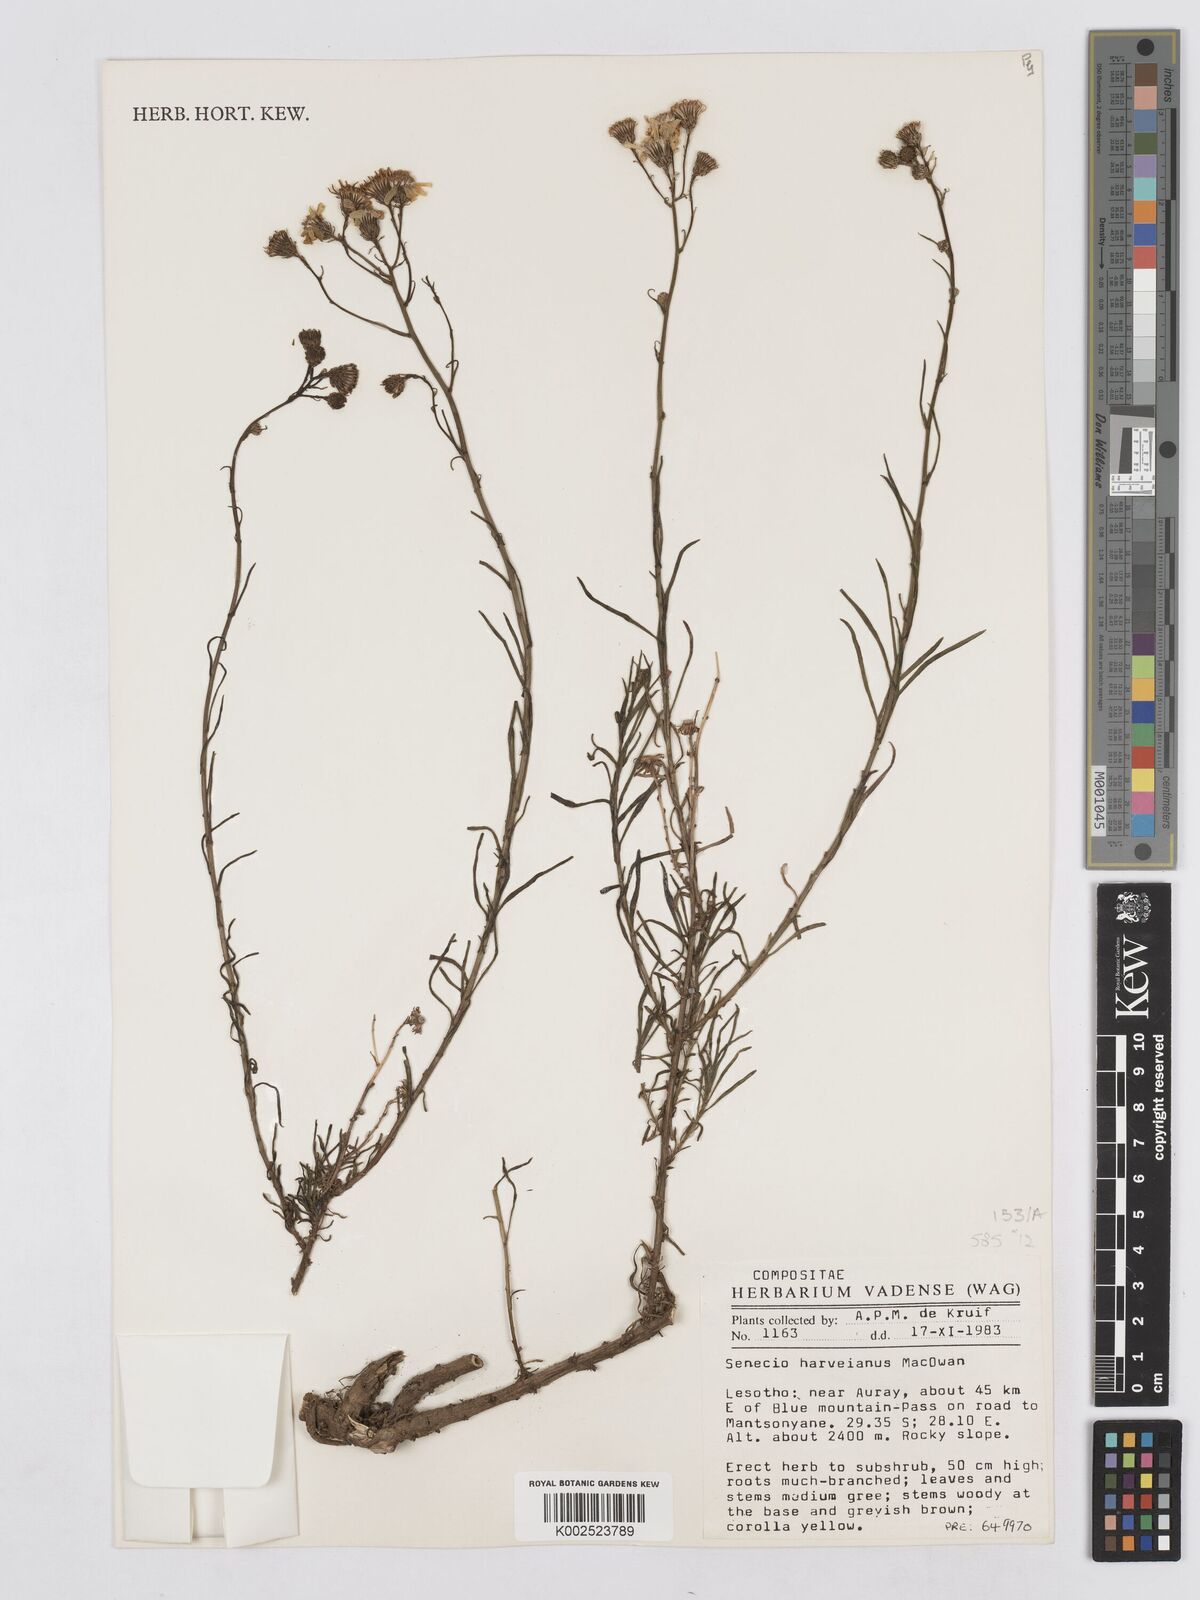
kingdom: Plantae
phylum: Tracheophyta
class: Magnoliopsida
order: Asterales
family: Asteraceae
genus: Senecio
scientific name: Senecio harveyanus
